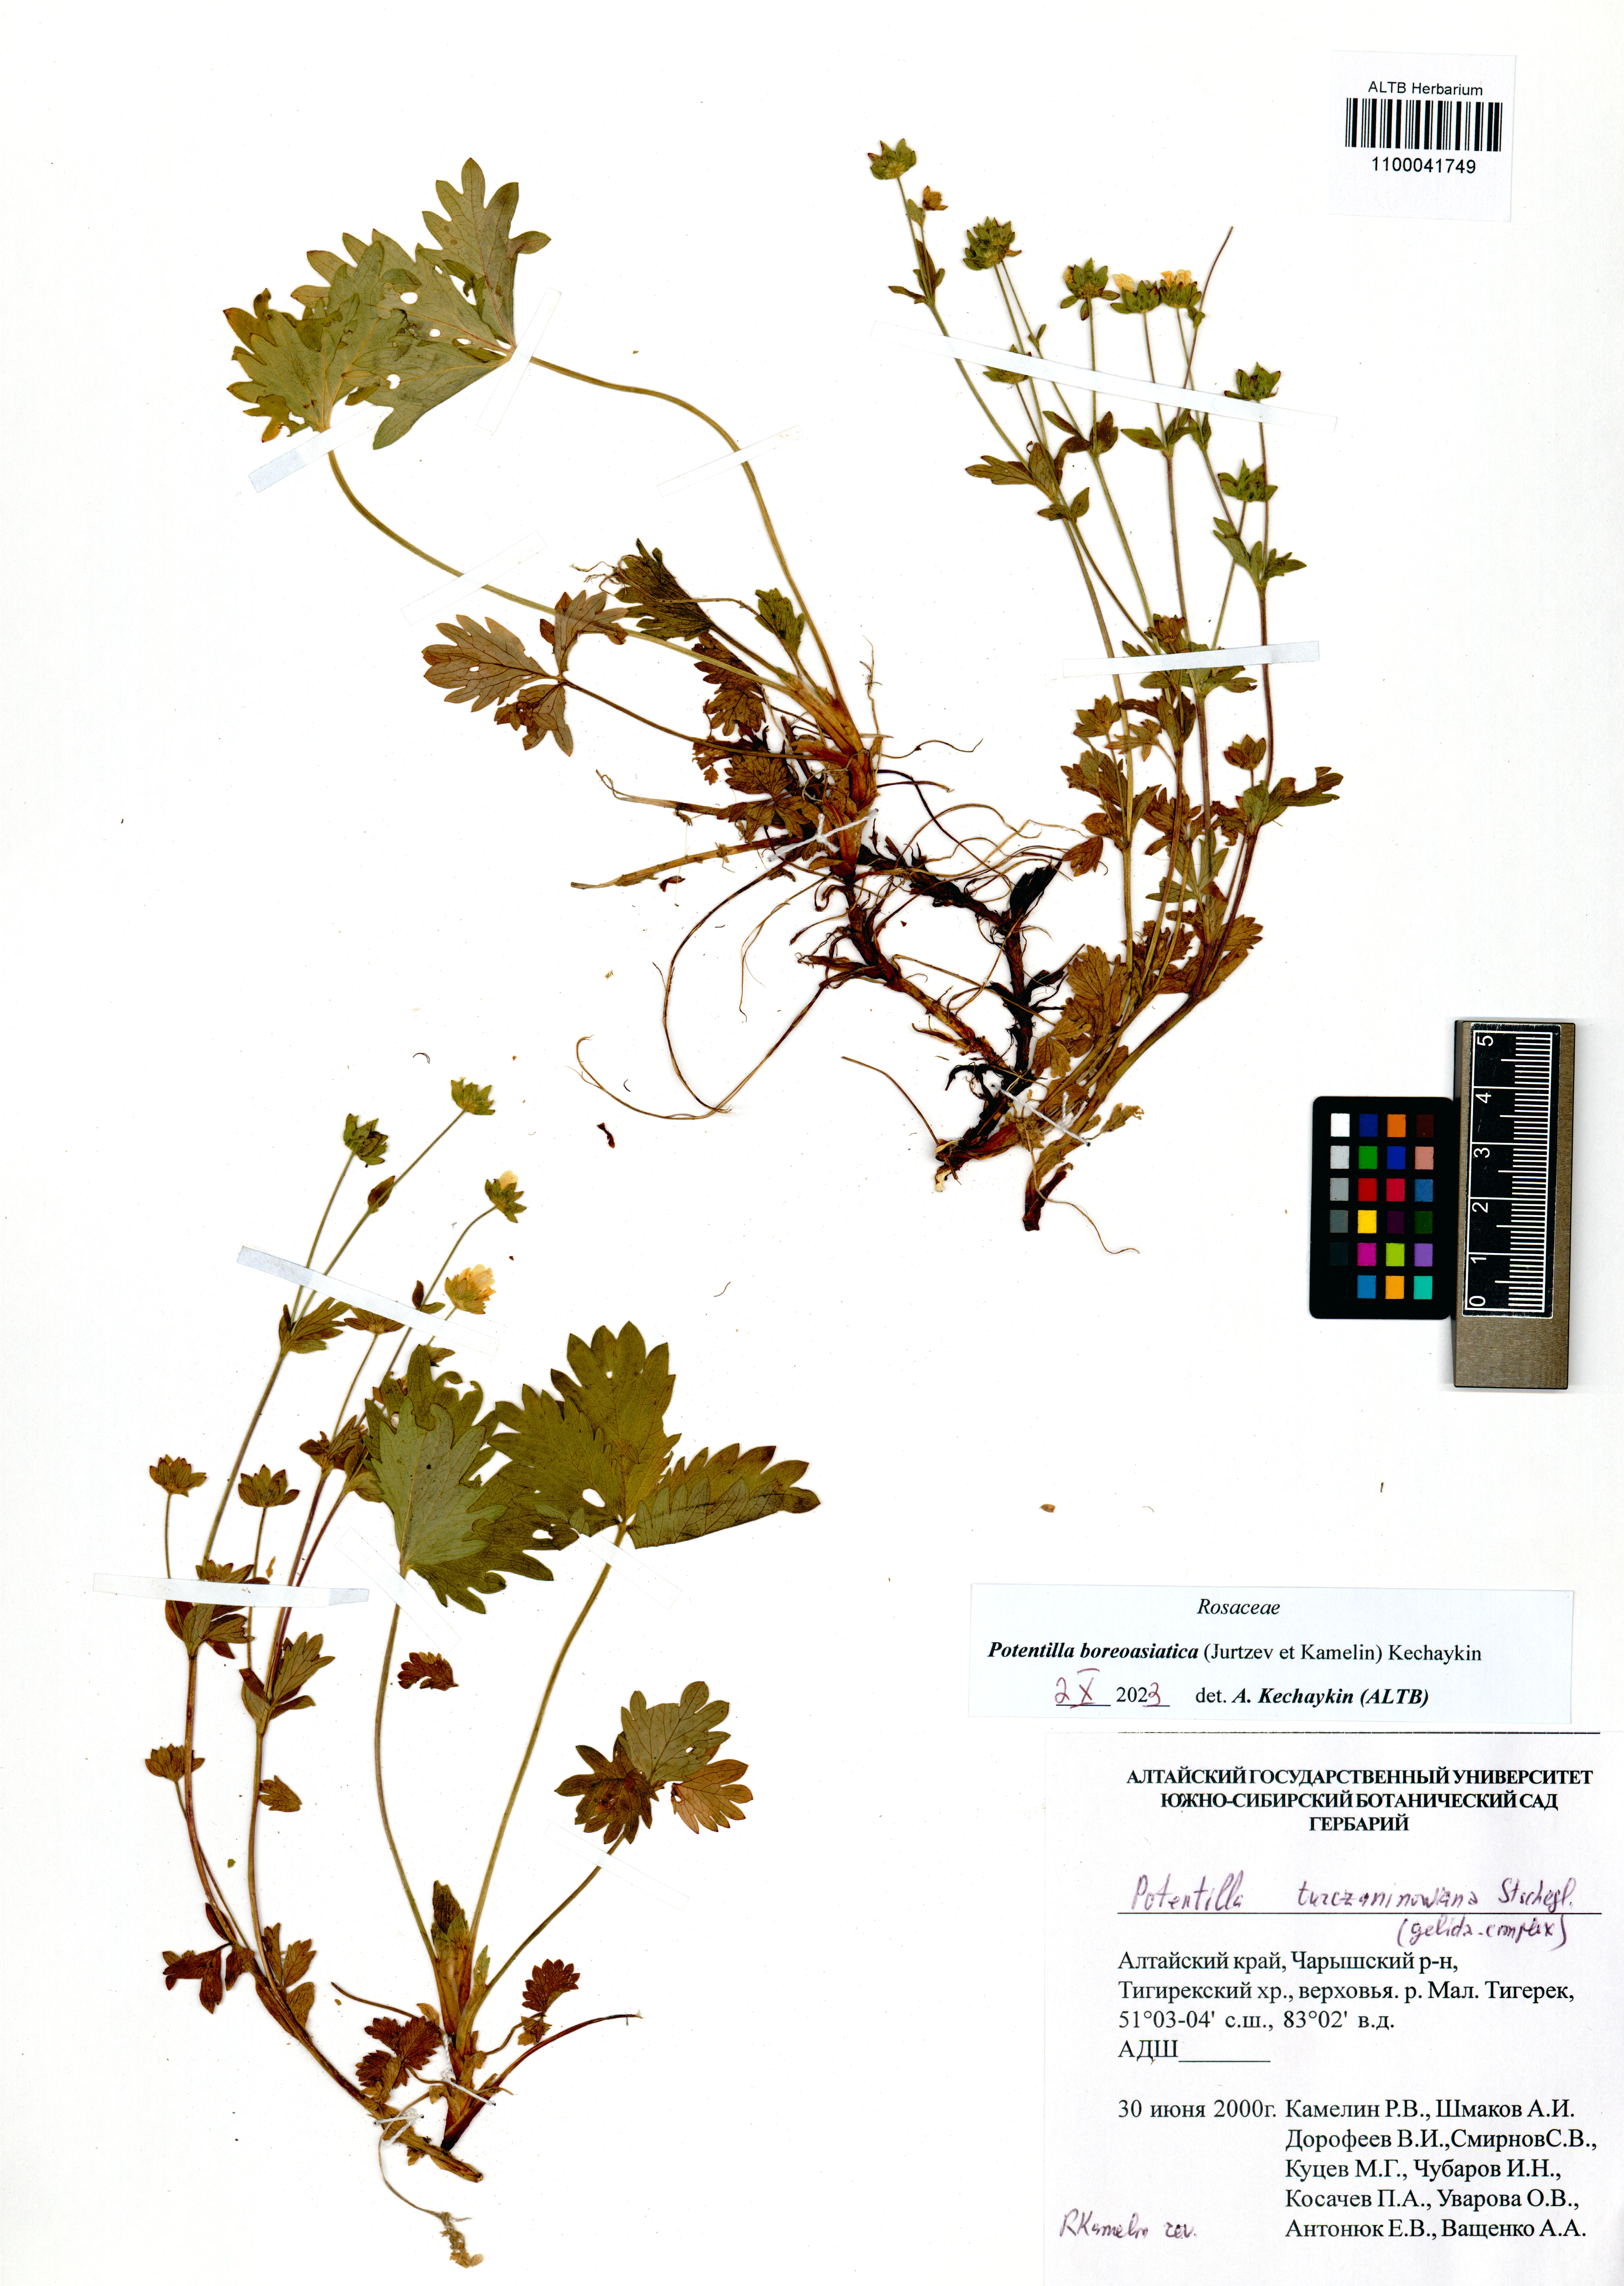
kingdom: Plantae
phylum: Tracheophyta
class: Magnoliopsida
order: Rosales
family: Rosaceae
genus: Potentilla
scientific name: Potentilla
